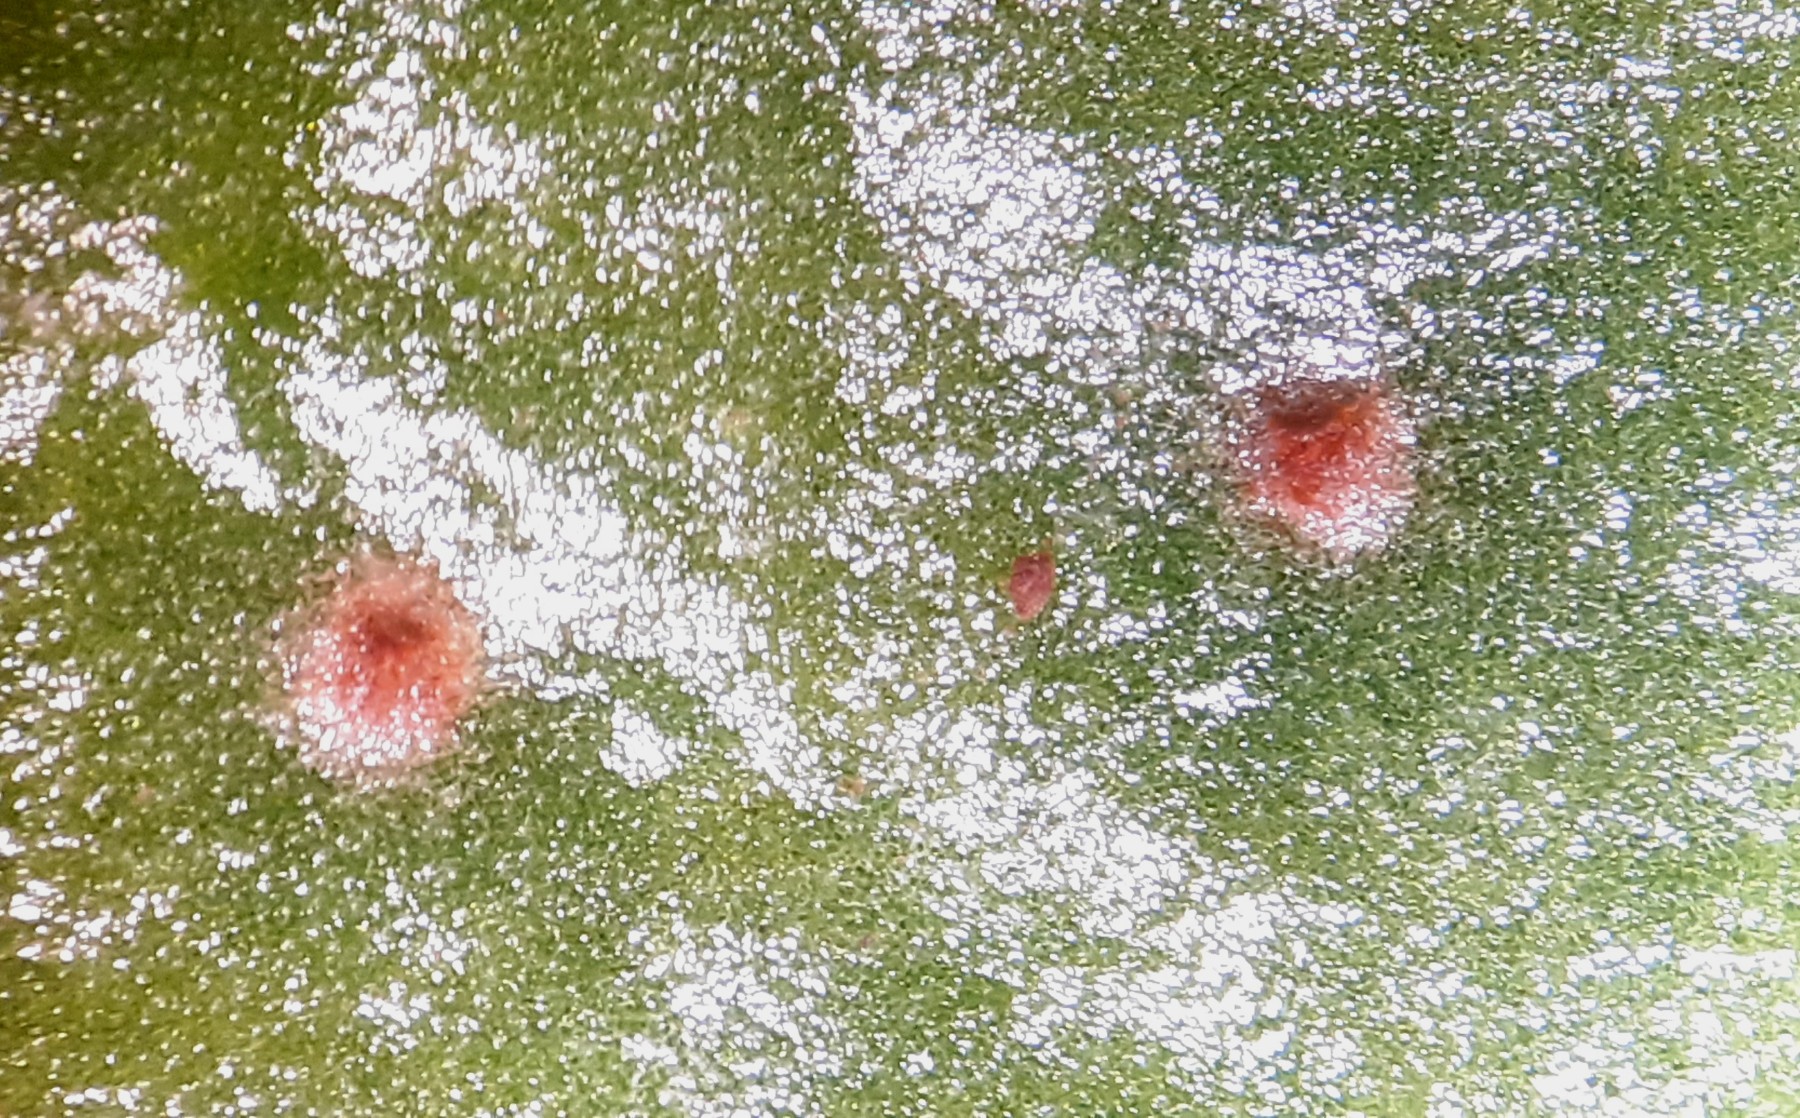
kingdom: Fungi
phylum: Basidiomycota
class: Pucciniomycetes
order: Pucciniales
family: Pucciniaceae
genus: Uromyces
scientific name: Uromyces betae
